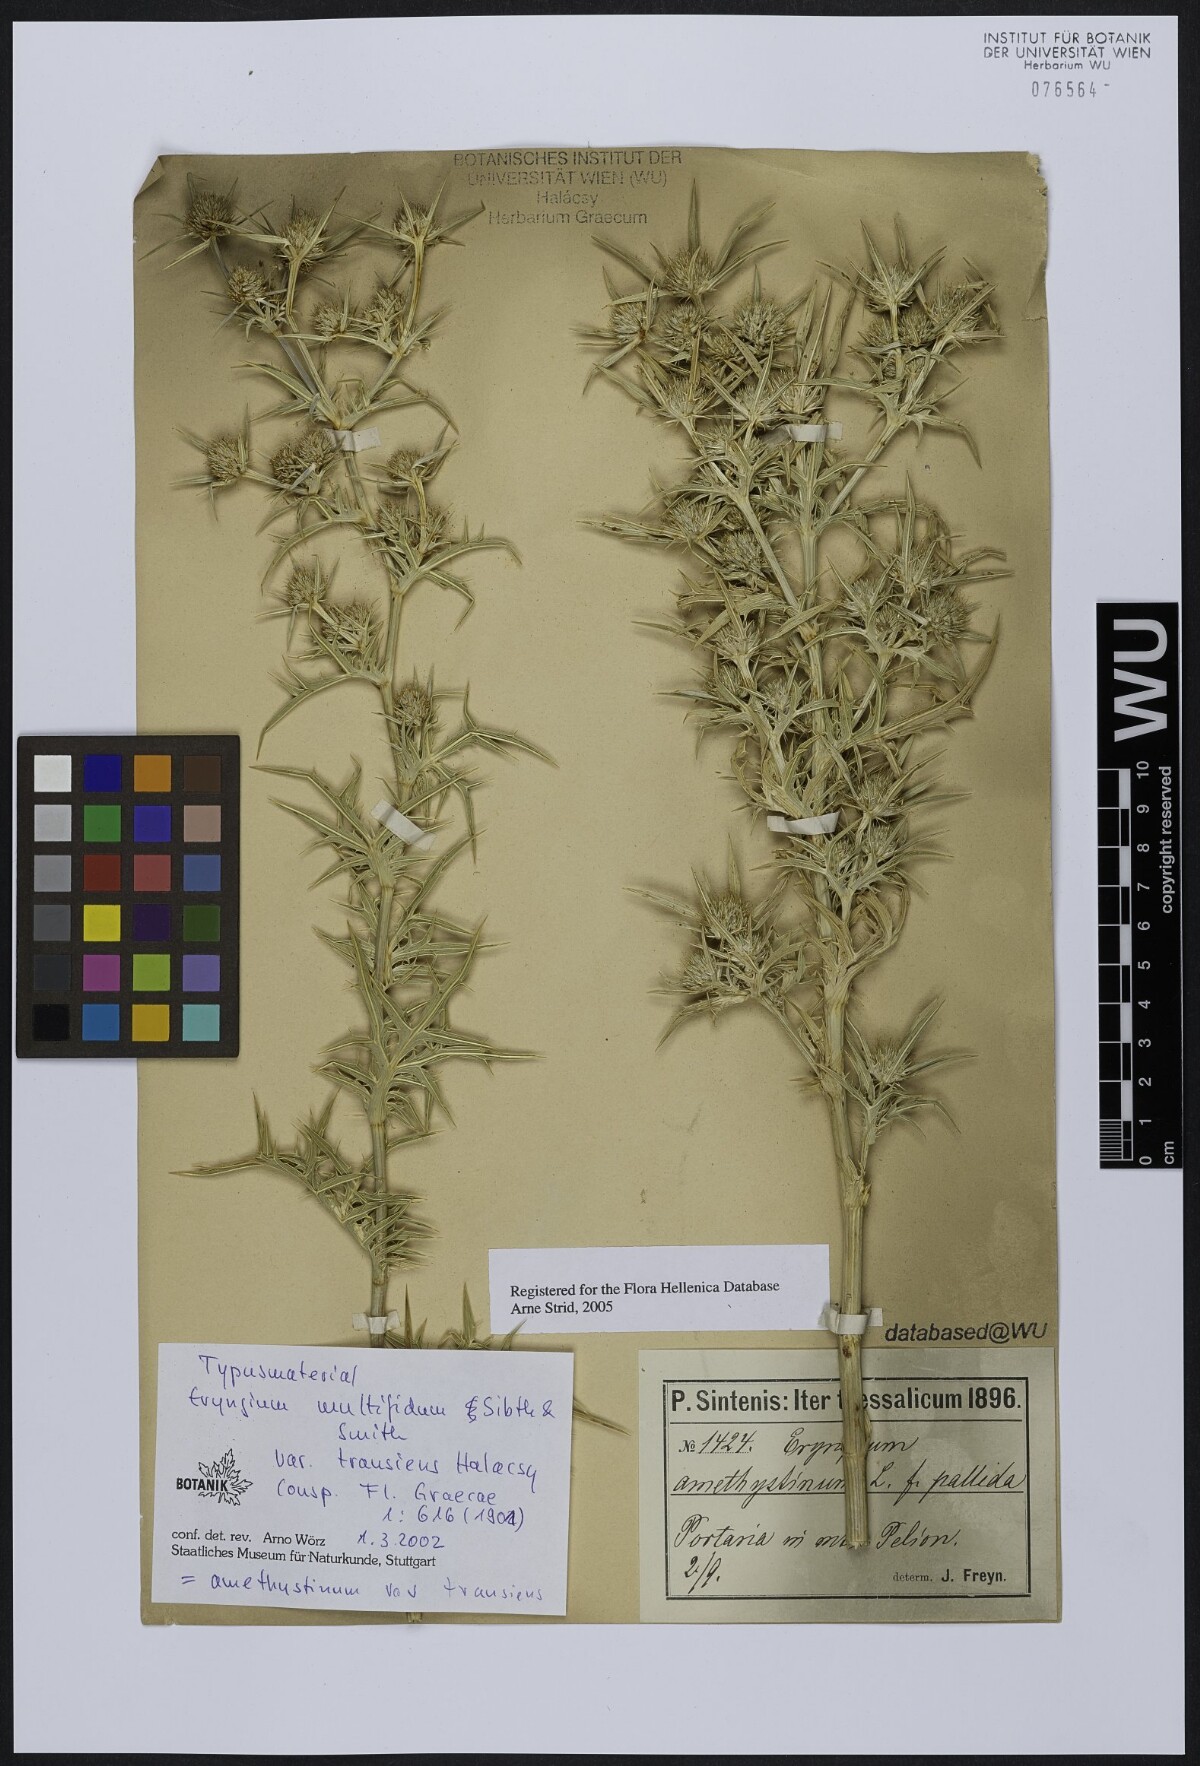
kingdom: Plantae
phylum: Tracheophyta
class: Magnoliopsida
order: Apiales
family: Apiaceae
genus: Eryngium
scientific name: Eryngium amethystinum
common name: Amethyst eryngo
